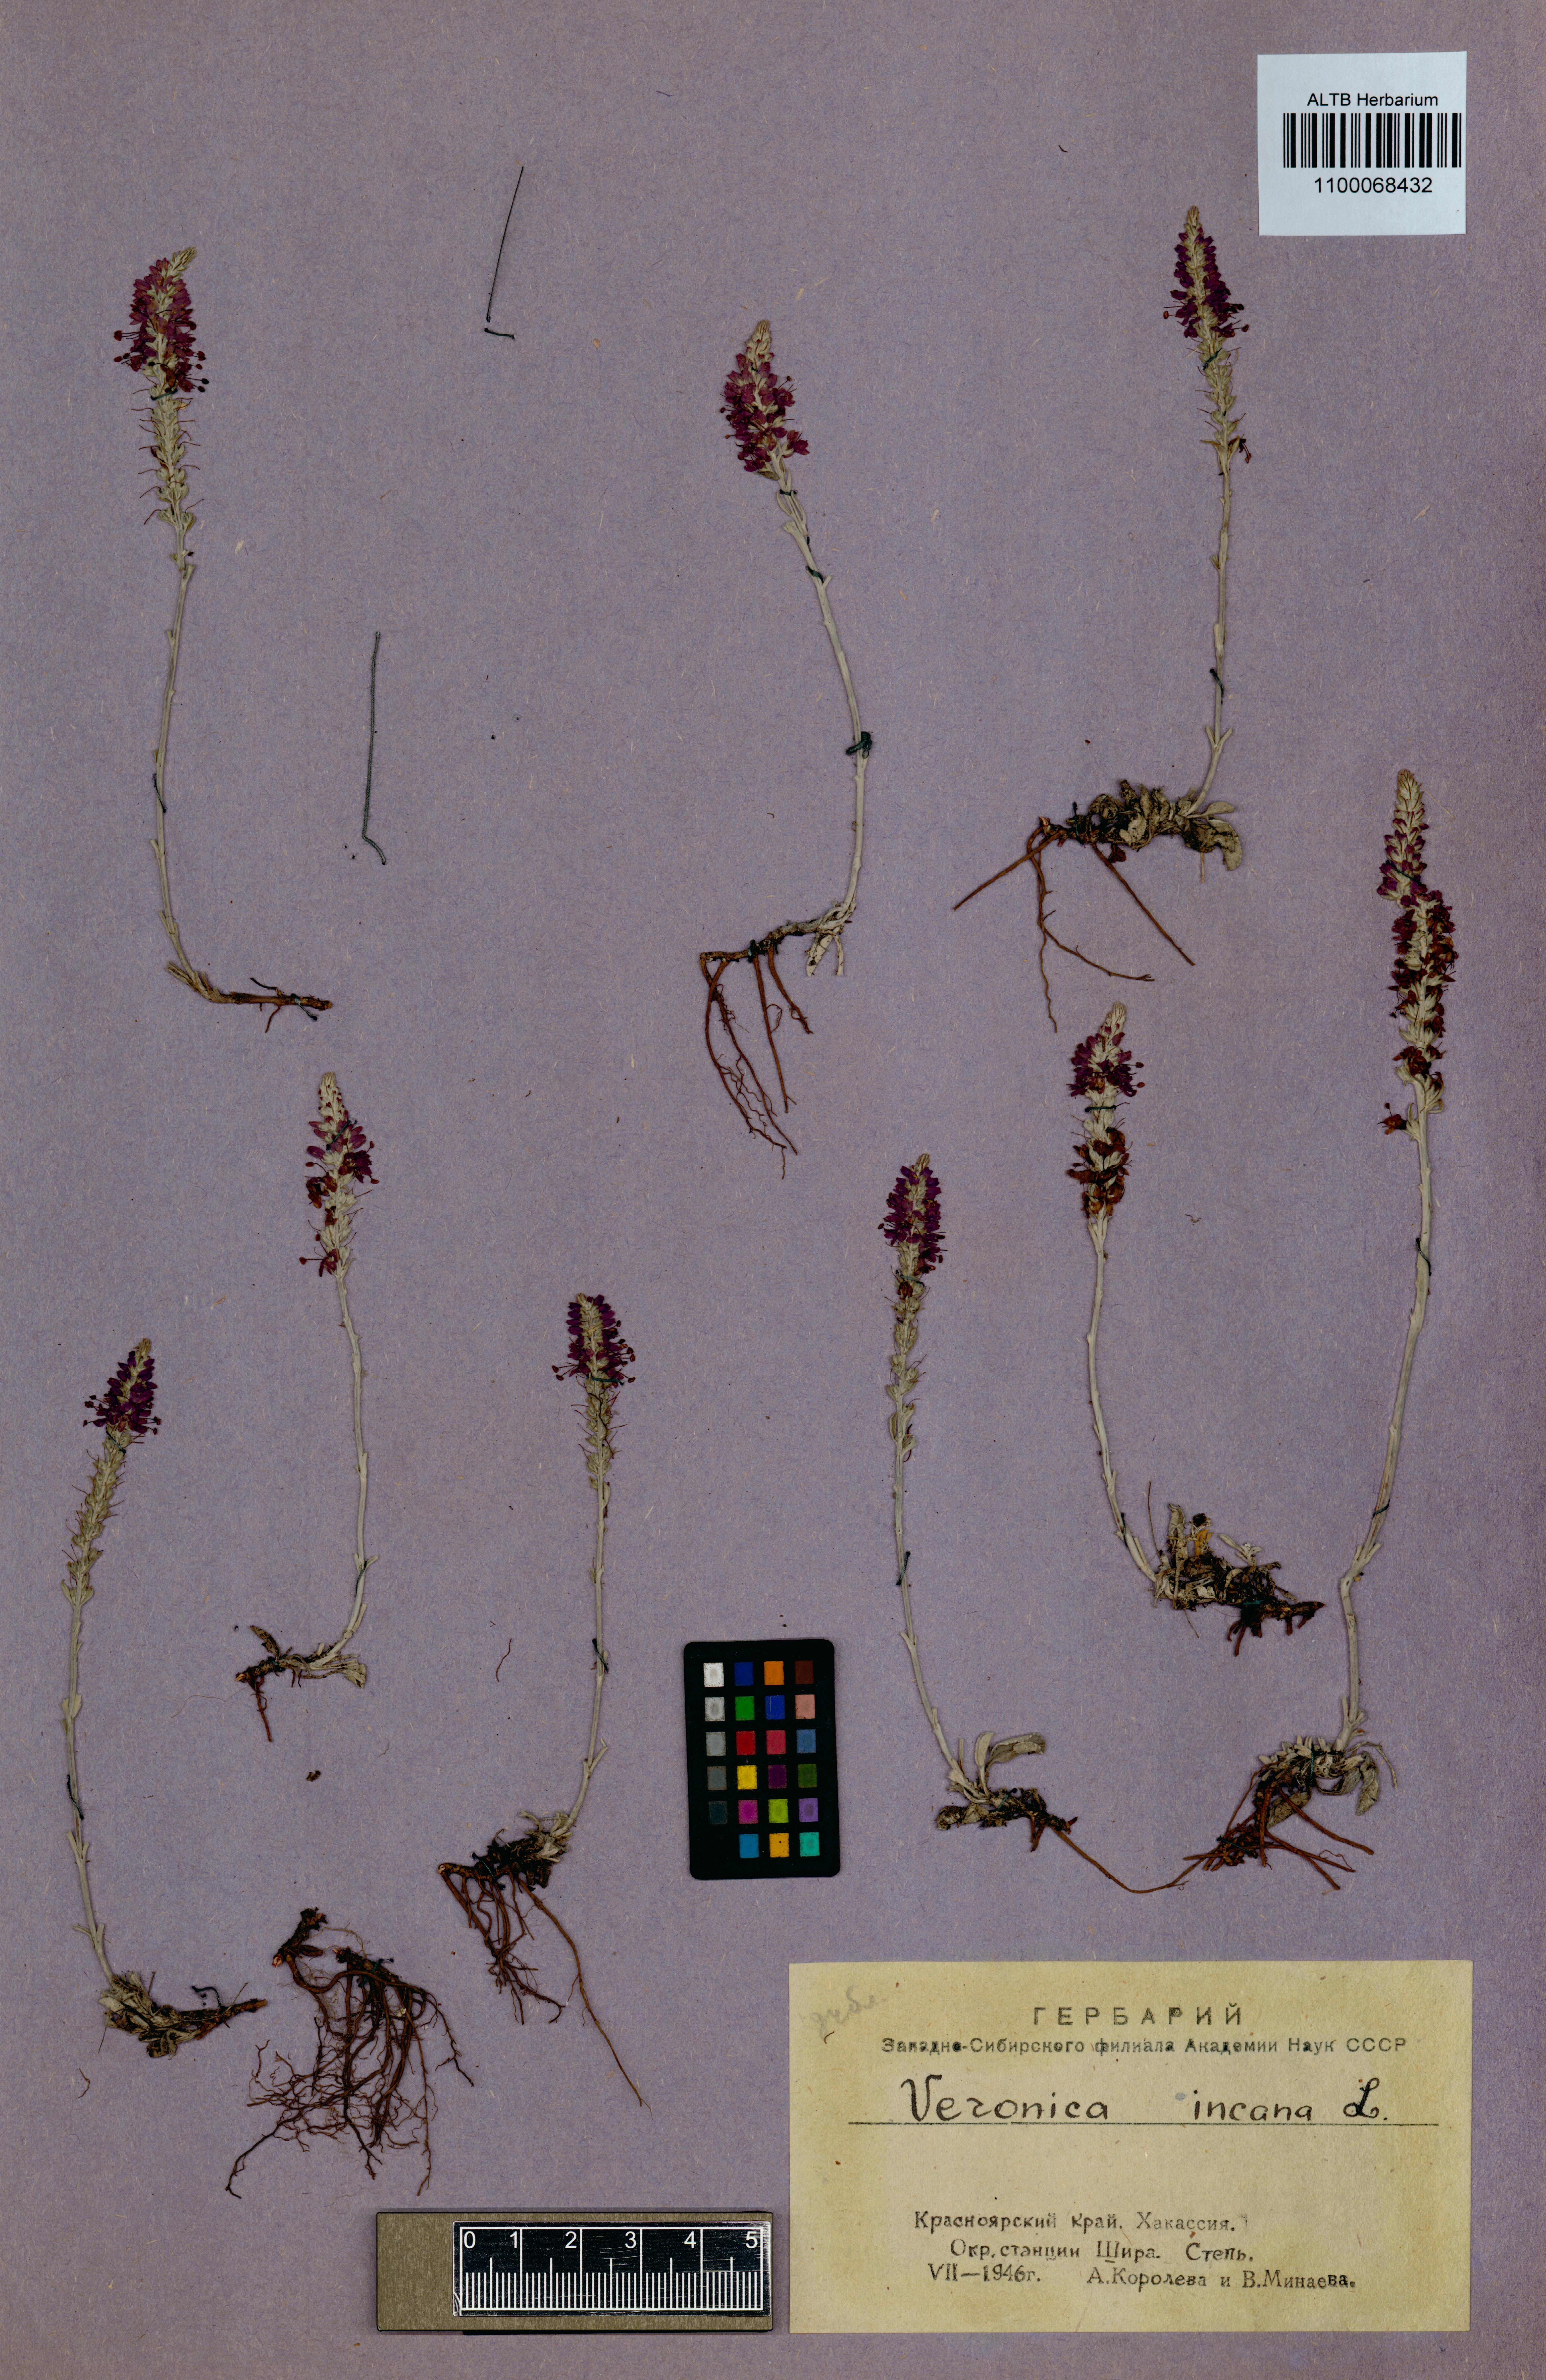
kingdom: Plantae
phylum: Tracheophyta
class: Magnoliopsida
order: Lamiales
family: Plantaginaceae
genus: Veronica
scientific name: Veronica incana
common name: Silver speedwell
